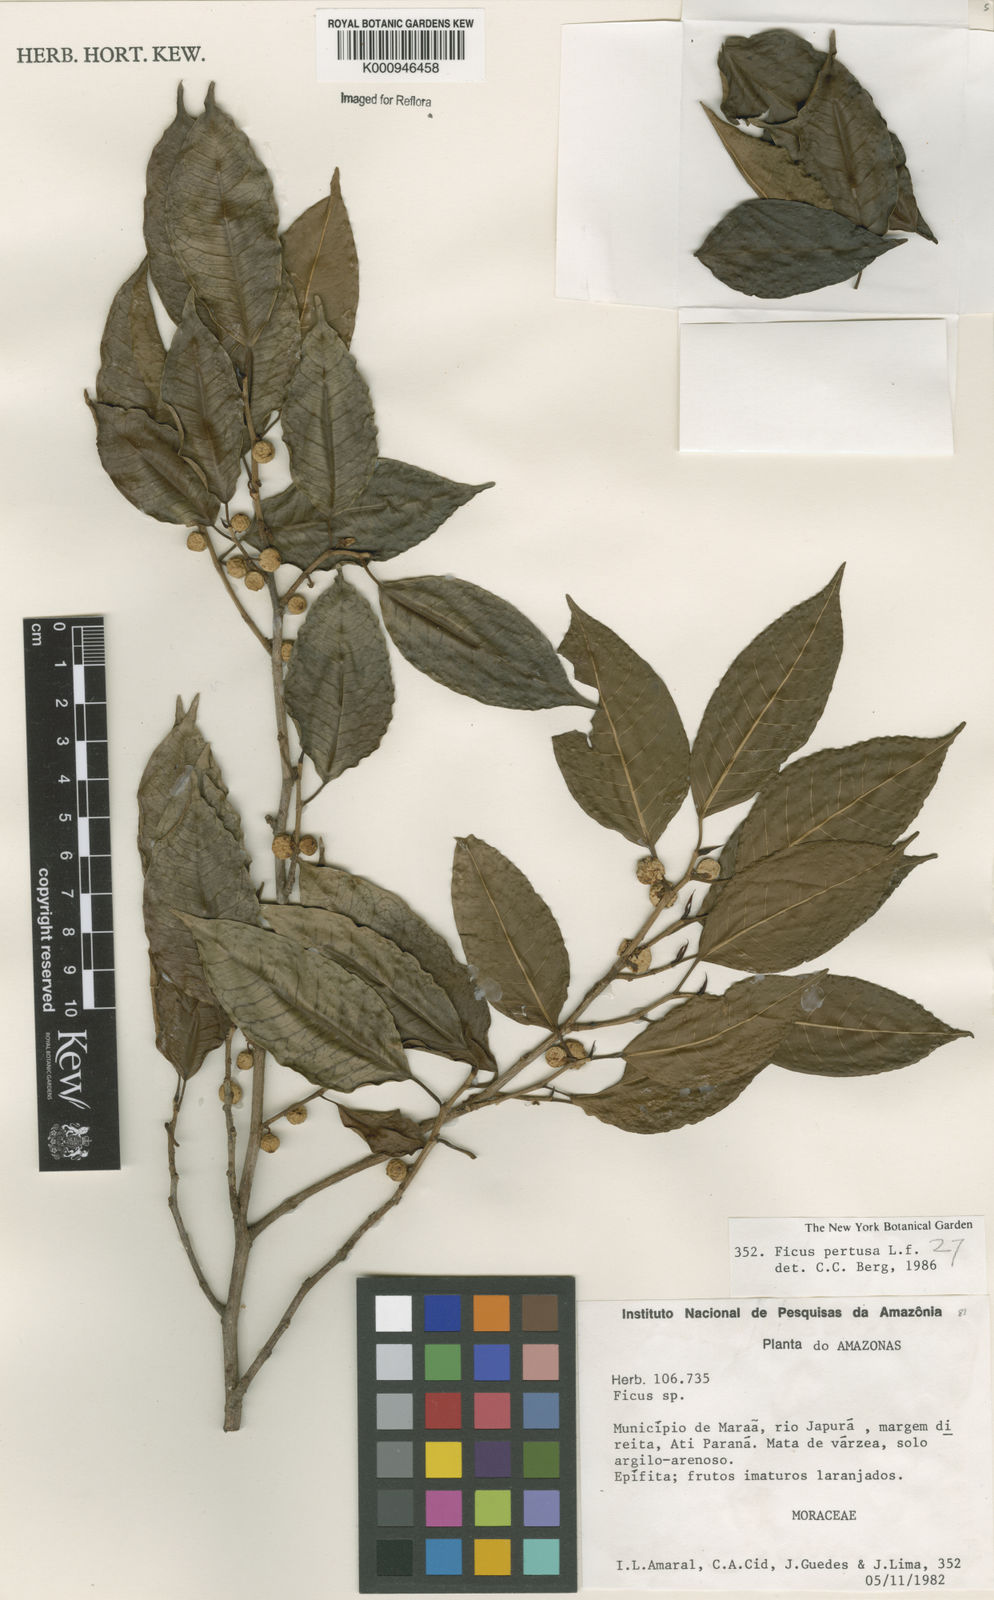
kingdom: Plantae
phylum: Tracheophyta
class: Magnoliopsida
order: Rosales
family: Moraceae
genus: Ficus
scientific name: Ficus pertusa
